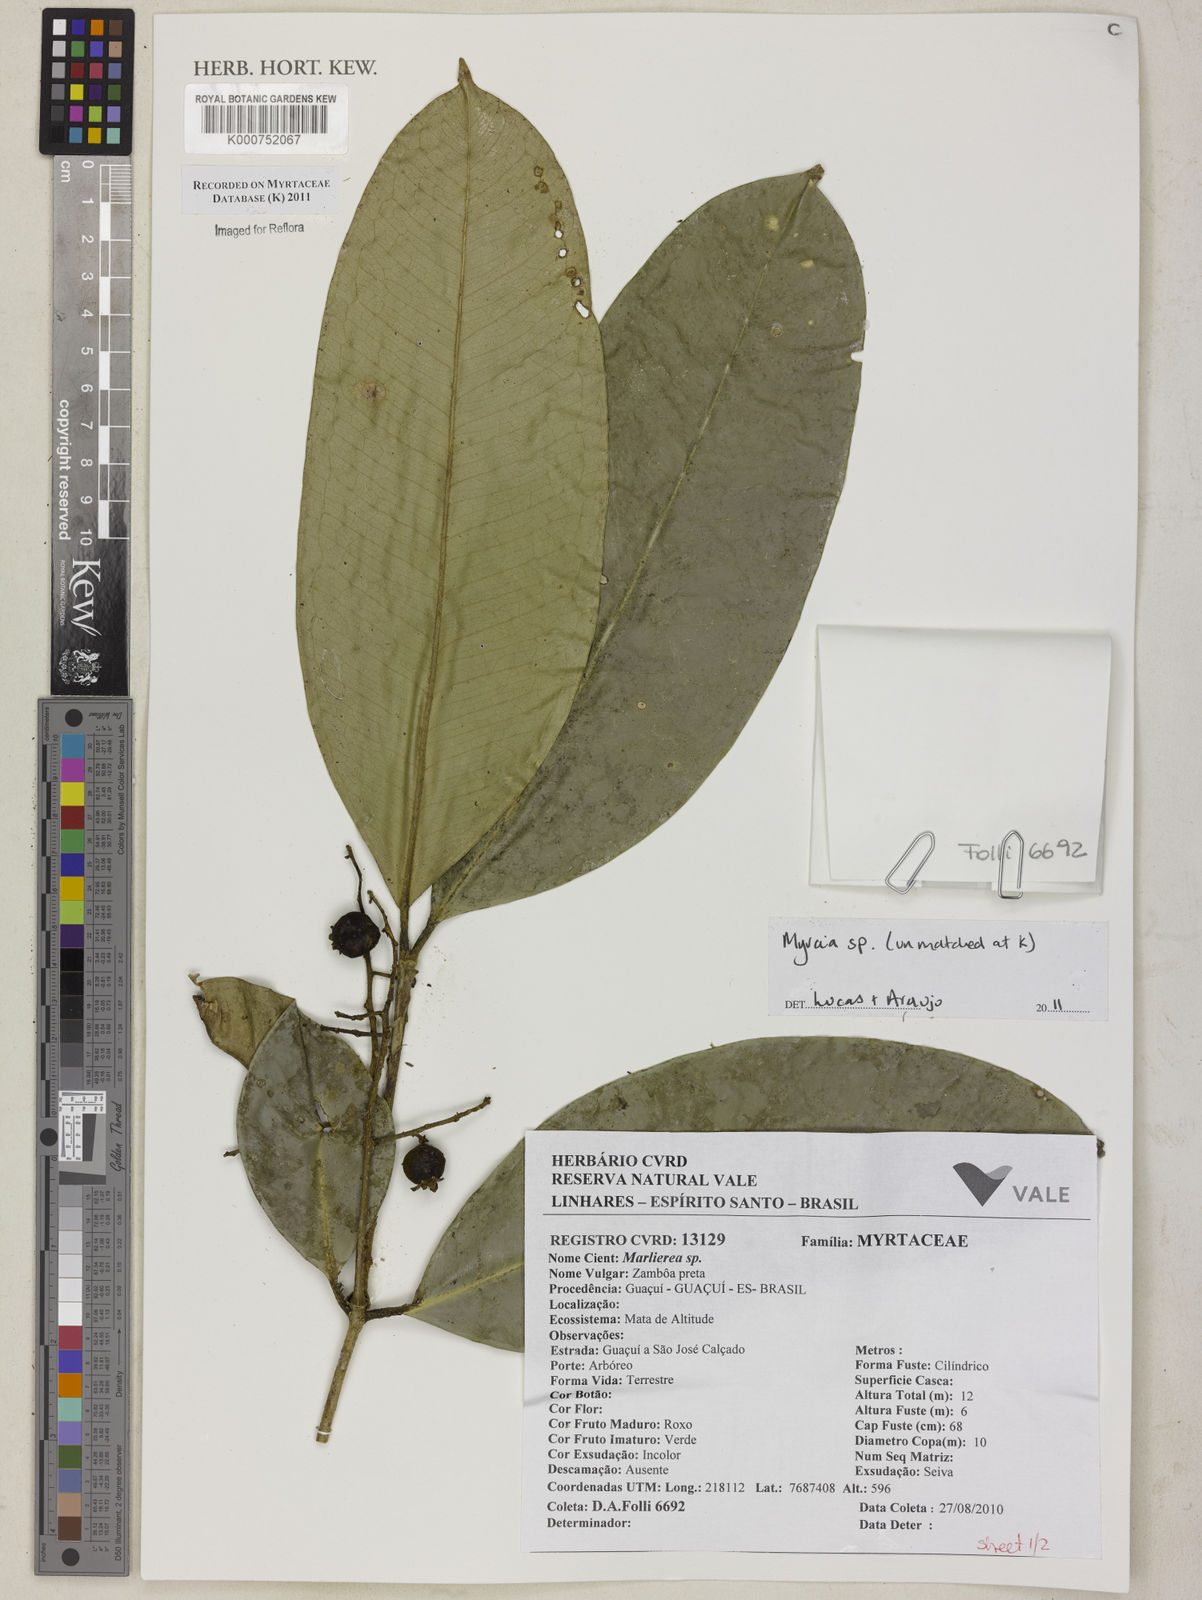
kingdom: Plantae
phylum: Tracheophyta
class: Magnoliopsida
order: Myrtales
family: Myrtaceae
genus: Myrcia
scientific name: Myrcia
